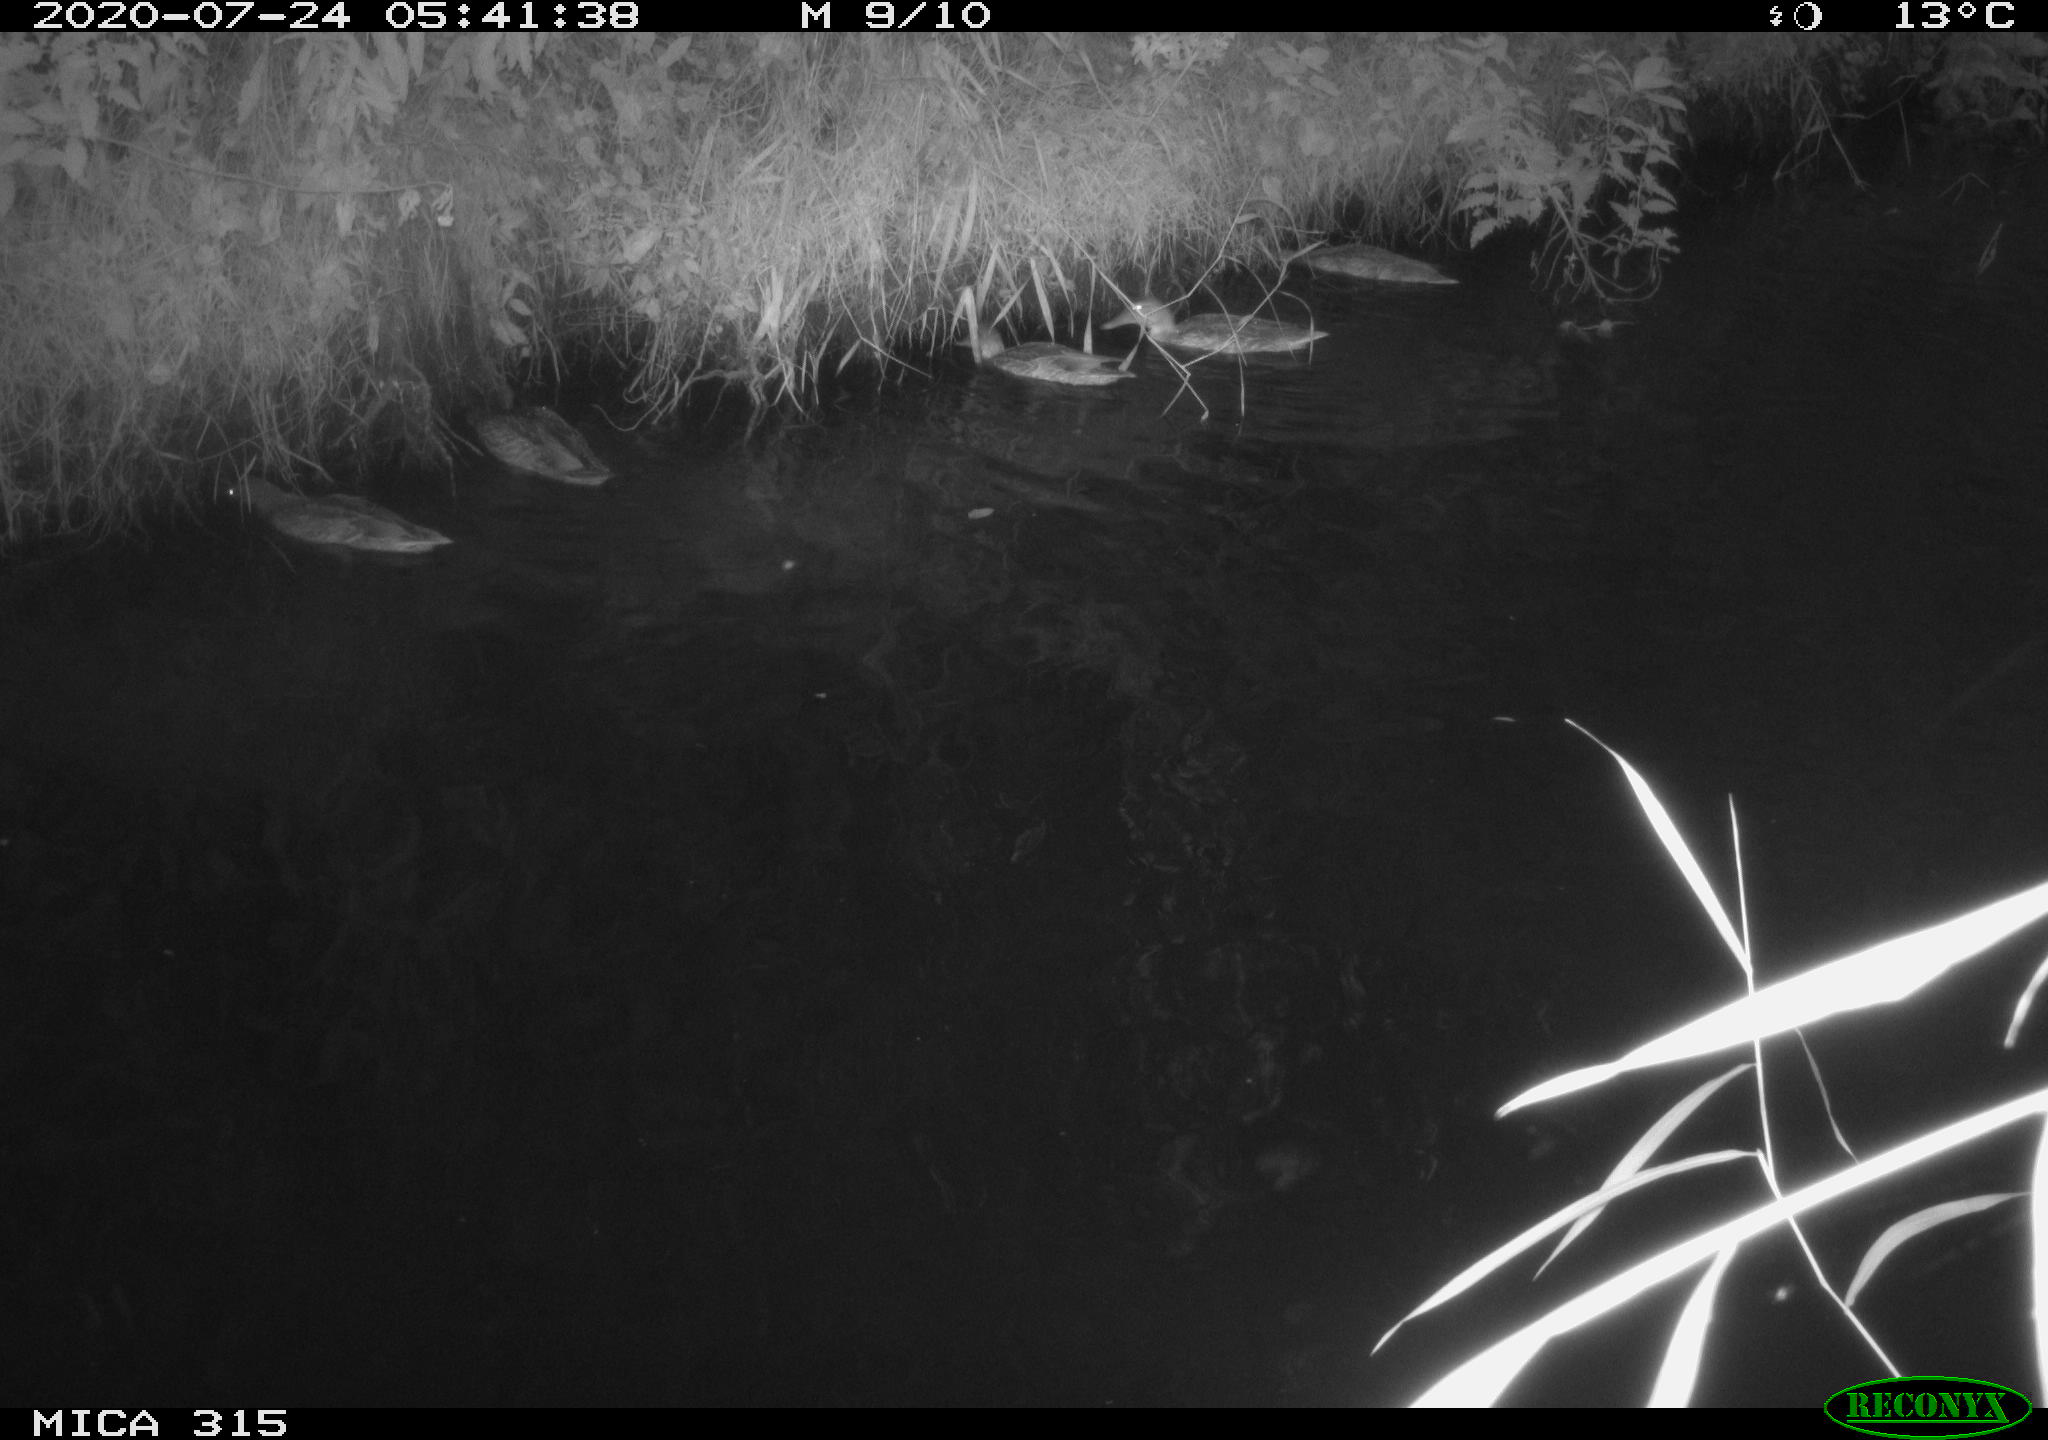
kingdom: Animalia
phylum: Chordata
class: Aves
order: Anseriformes
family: Anatidae
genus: Anas
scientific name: Anas platyrhynchos
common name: Mallard
